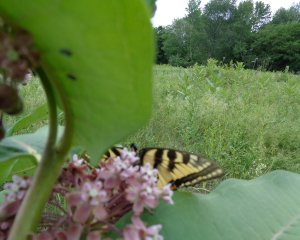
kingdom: Animalia
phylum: Arthropoda
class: Insecta
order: Lepidoptera
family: Papilionidae
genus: Pterourus
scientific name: Pterourus glaucus
